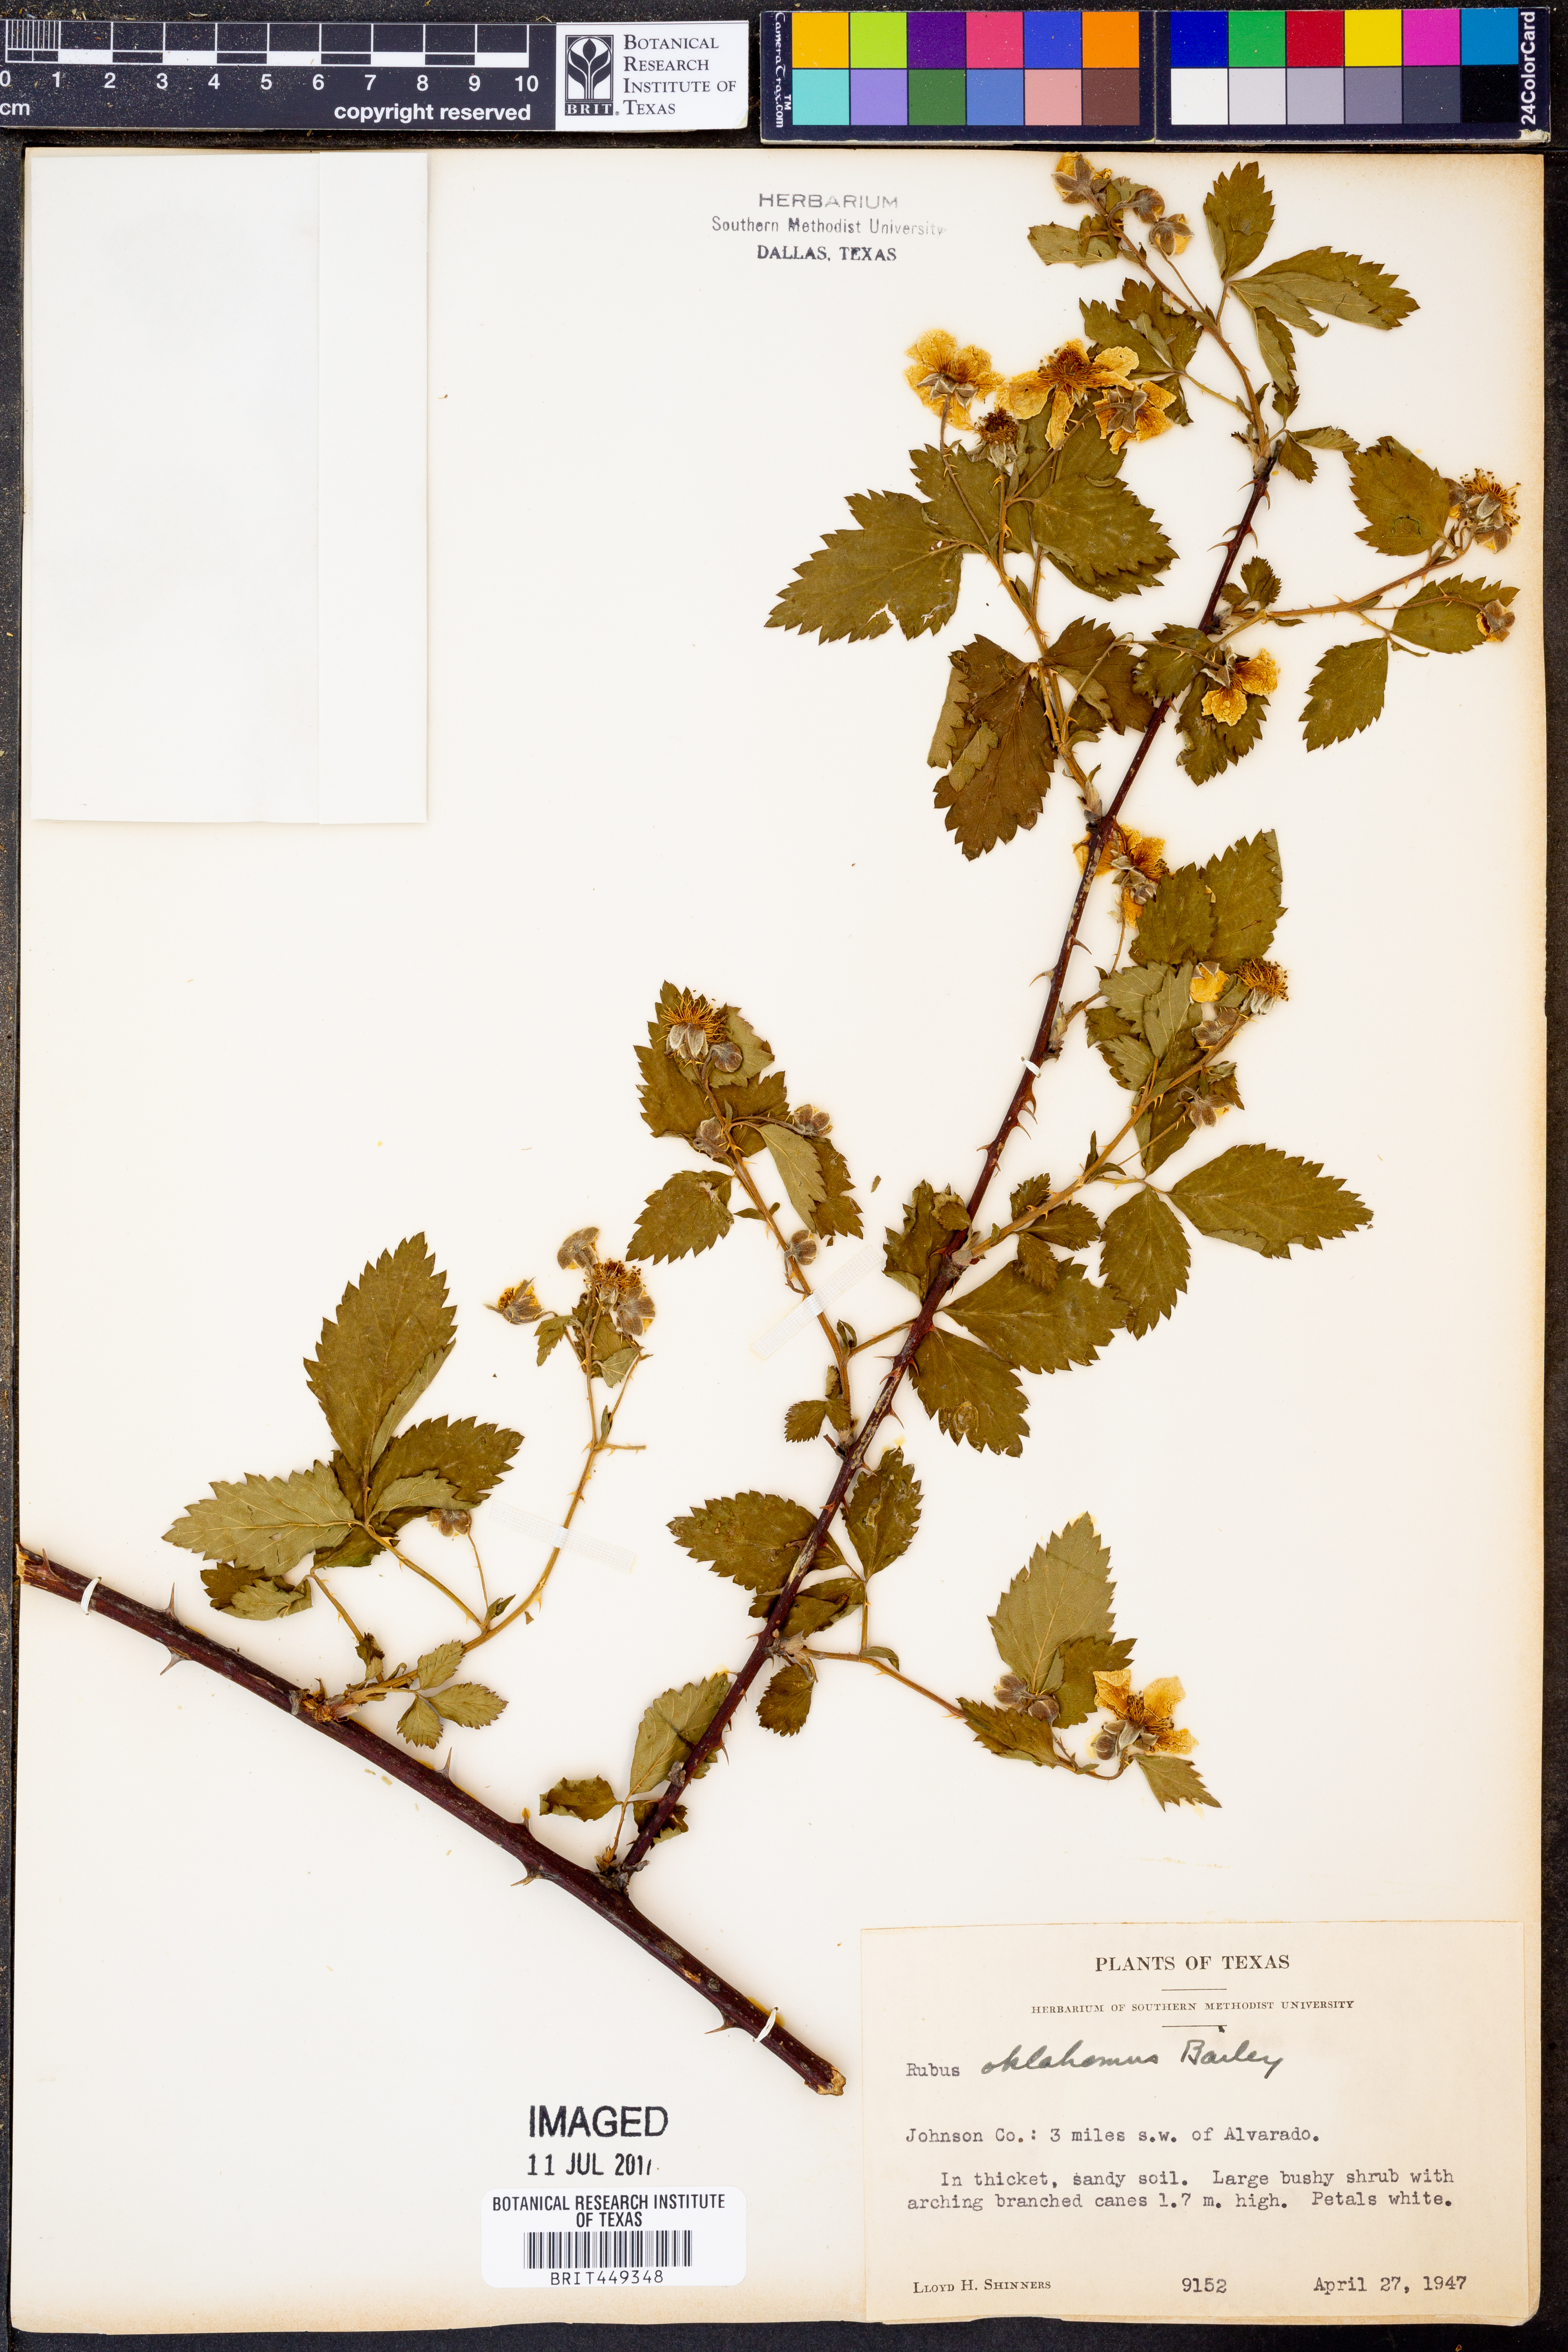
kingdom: Plantae
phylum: Tracheophyta
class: Magnoliopsida
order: Rosales
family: Rosaceae
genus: Rubus
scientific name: Rubus oklahomus
